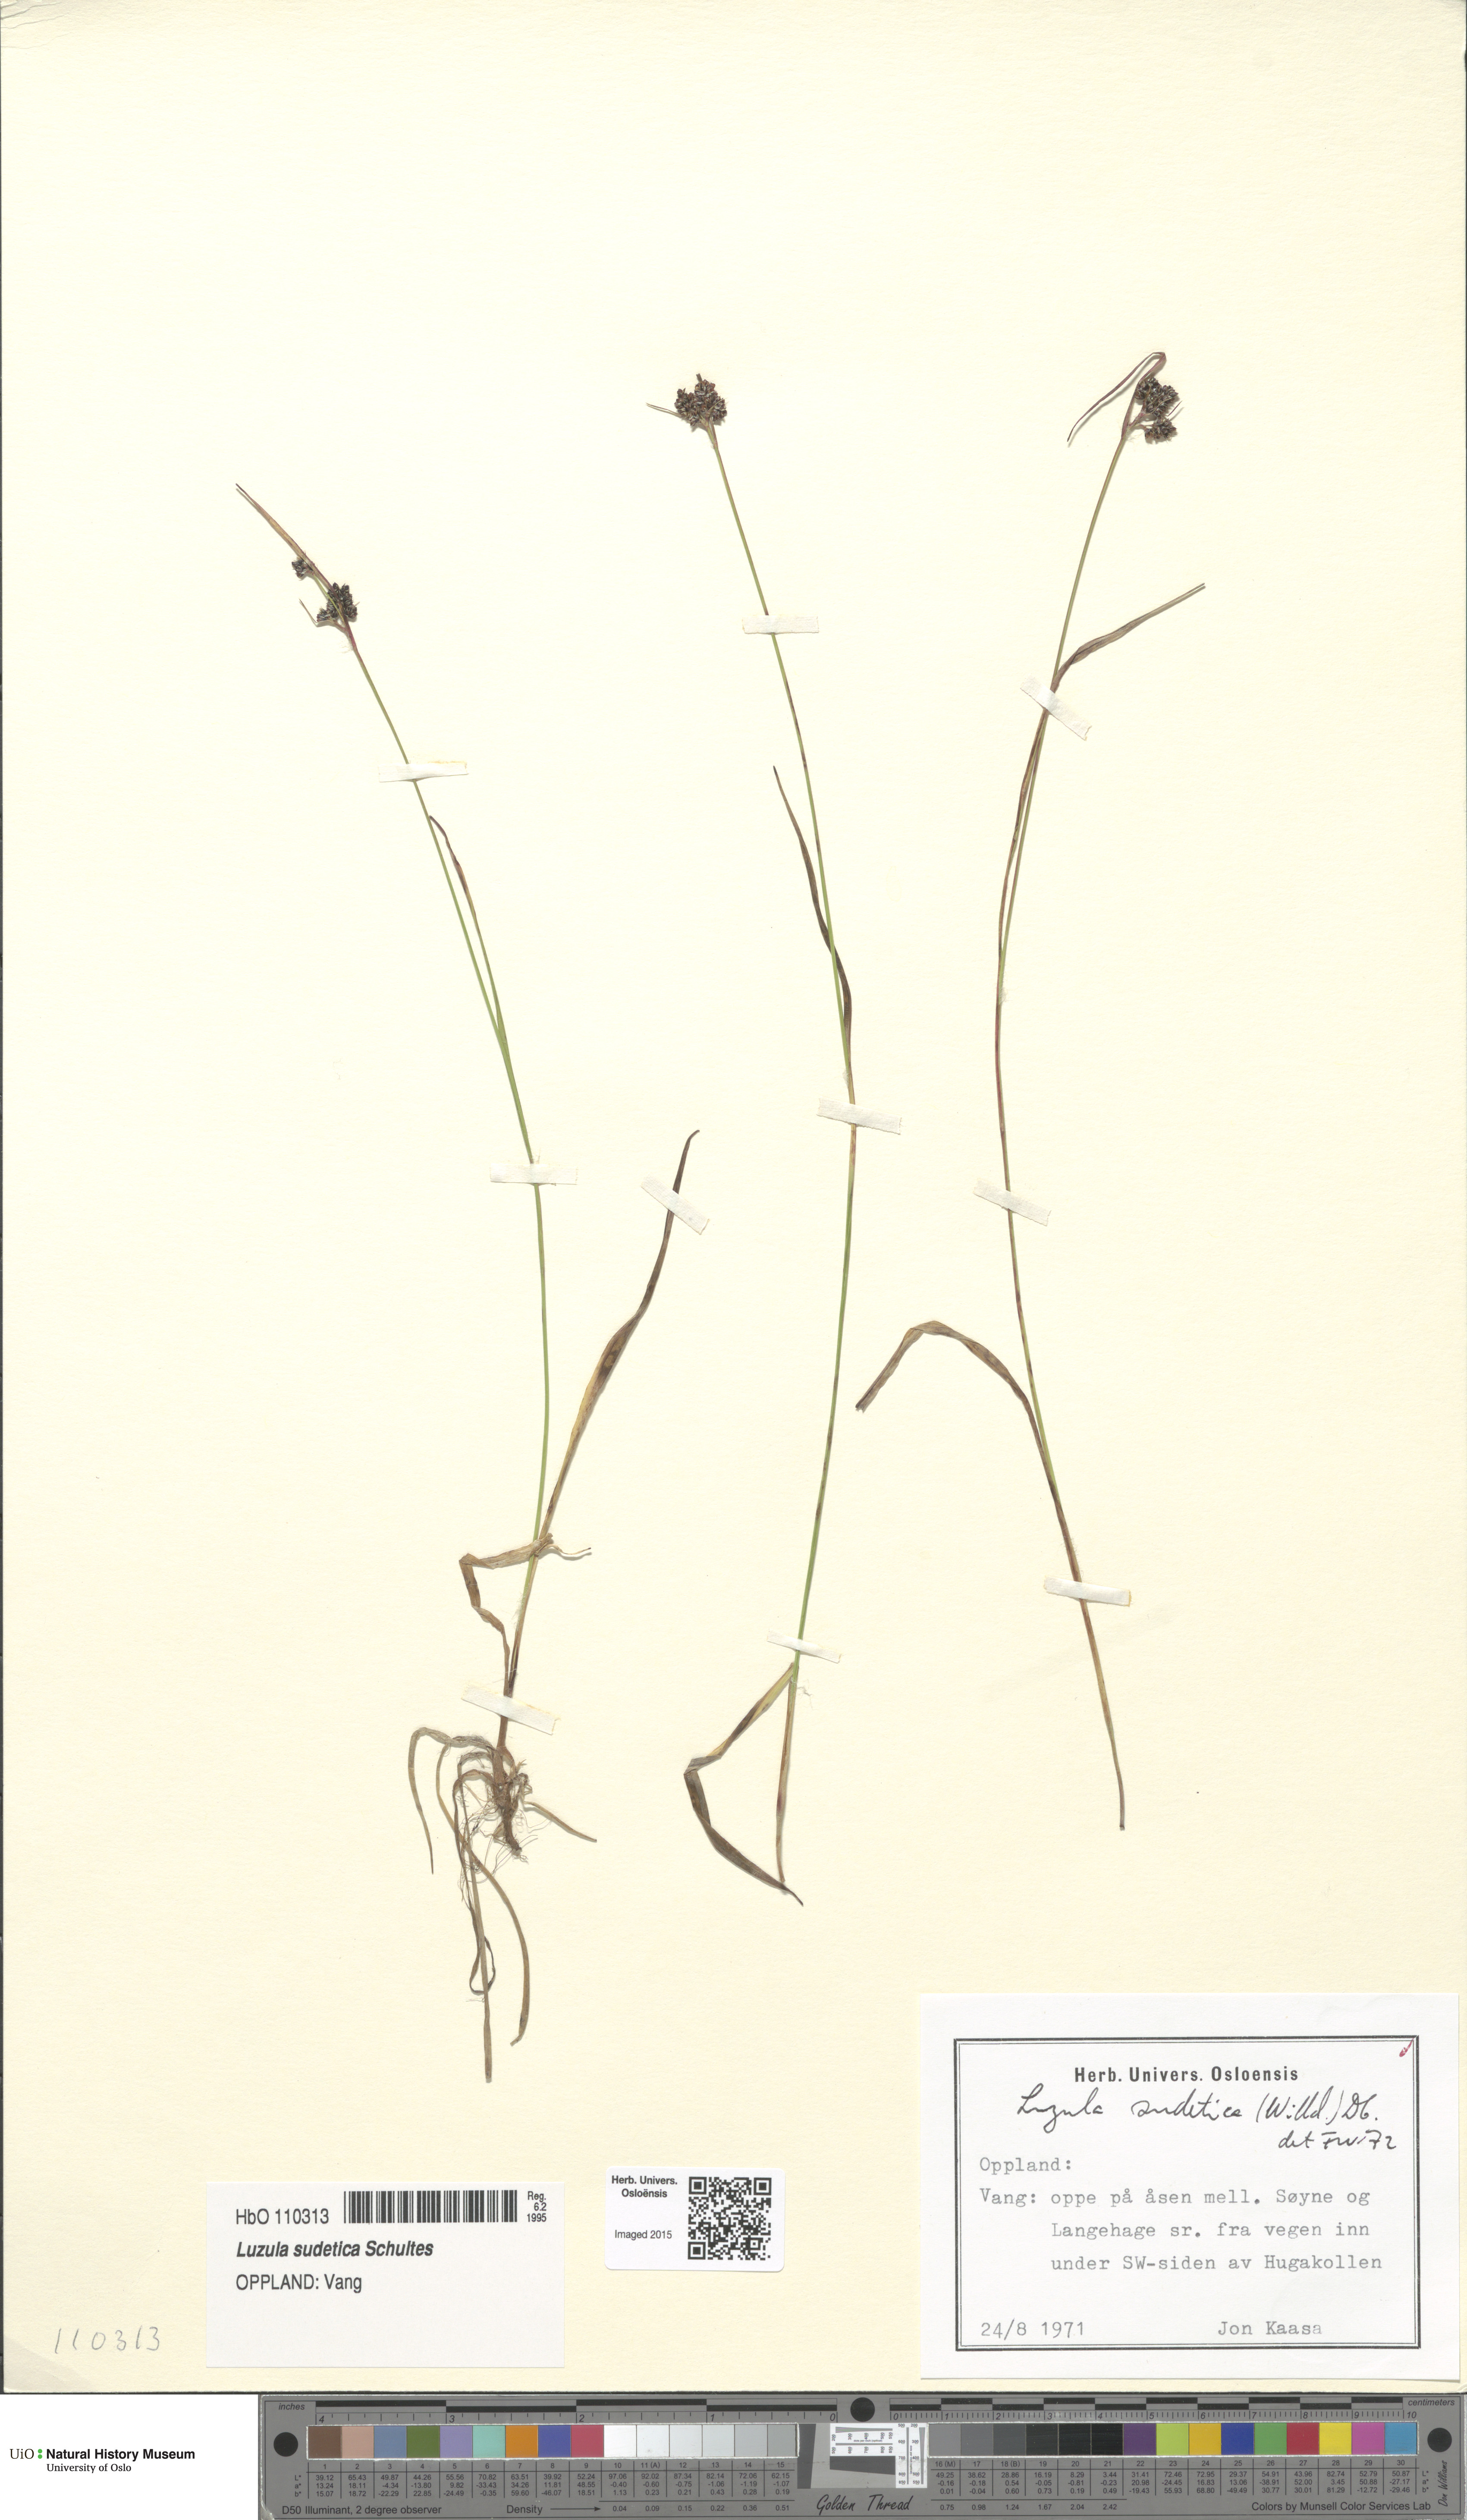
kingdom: Plantae
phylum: Tracheophyta
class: Liliopsida
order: Poales
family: Juncaceae
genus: Luzula
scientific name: Luzula sudetica
